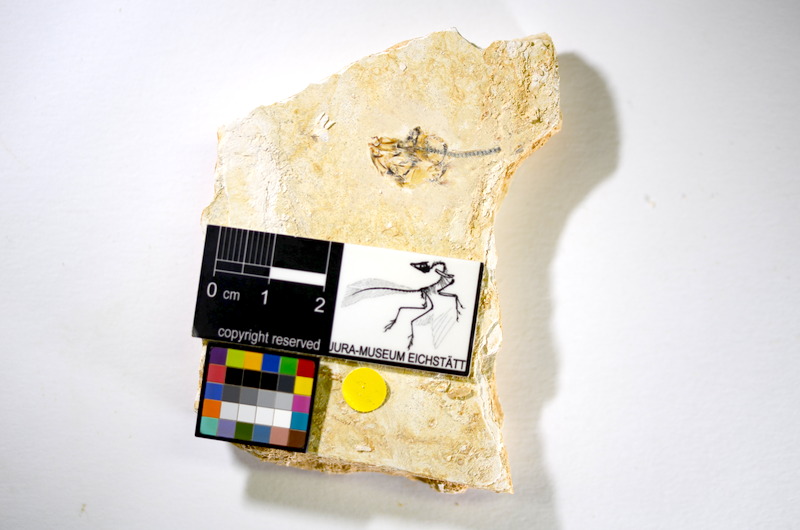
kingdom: Animalia
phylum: Chordata
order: Salmoniformes
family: Orthogonikleithridae
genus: Orthogonikleithrus
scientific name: Orthogonikleithrus hoelli
